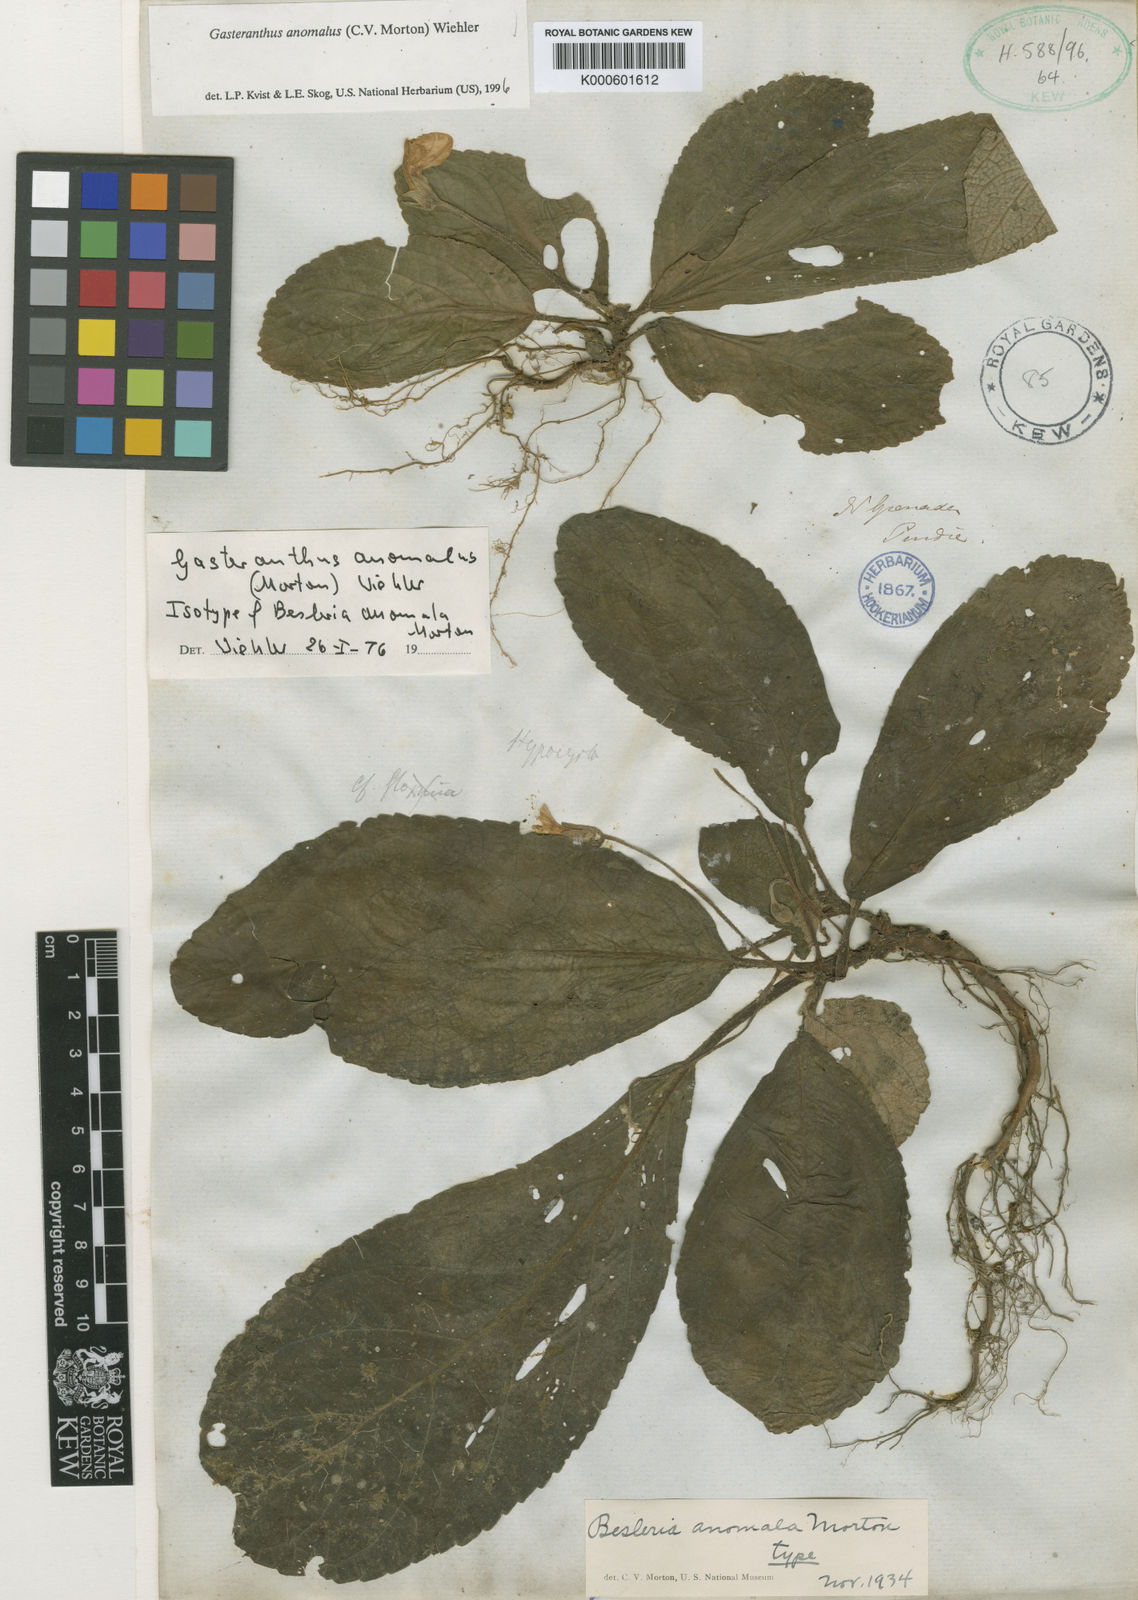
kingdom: Plantae
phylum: Tracheophyta
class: Magnoliopsida
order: Lamiales
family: Gesneriaceae
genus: Gasteranthus
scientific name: Gasteranthus anomalus
